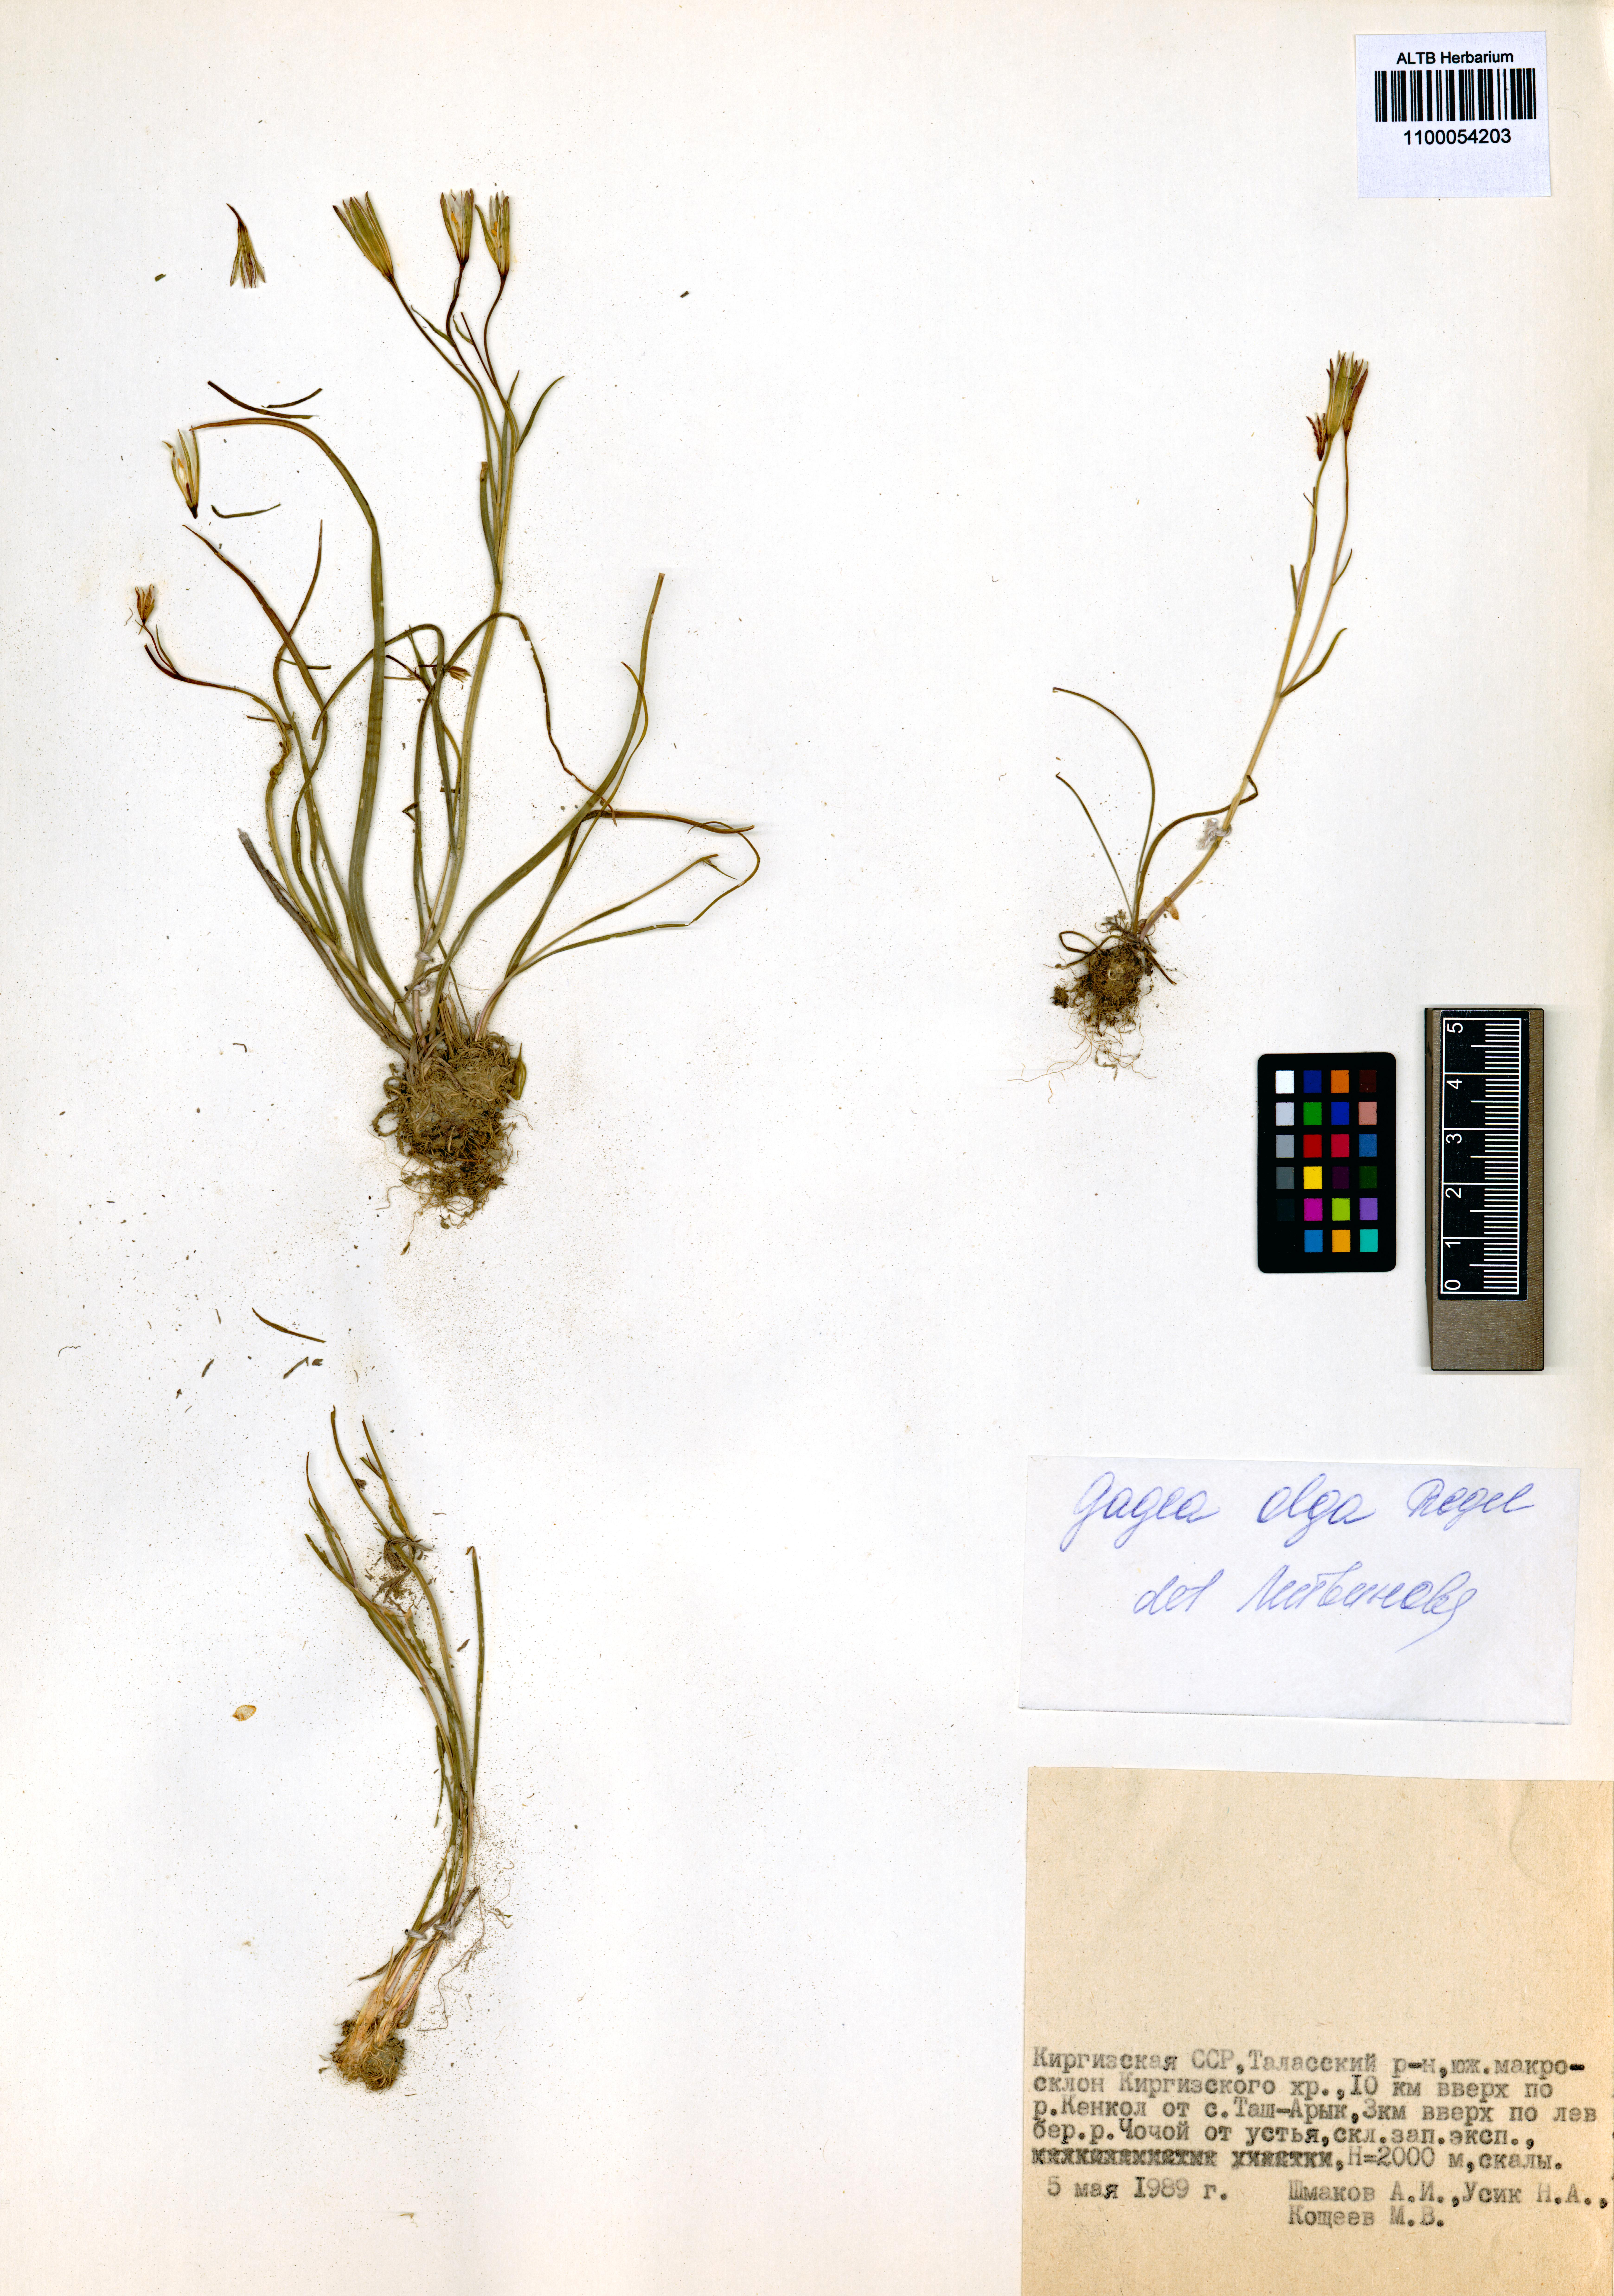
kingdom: Plantae
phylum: Tracheophyta
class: Liliopsida
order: Liliales
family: Liliaceae
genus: Gagea
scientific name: Gagea olgae
